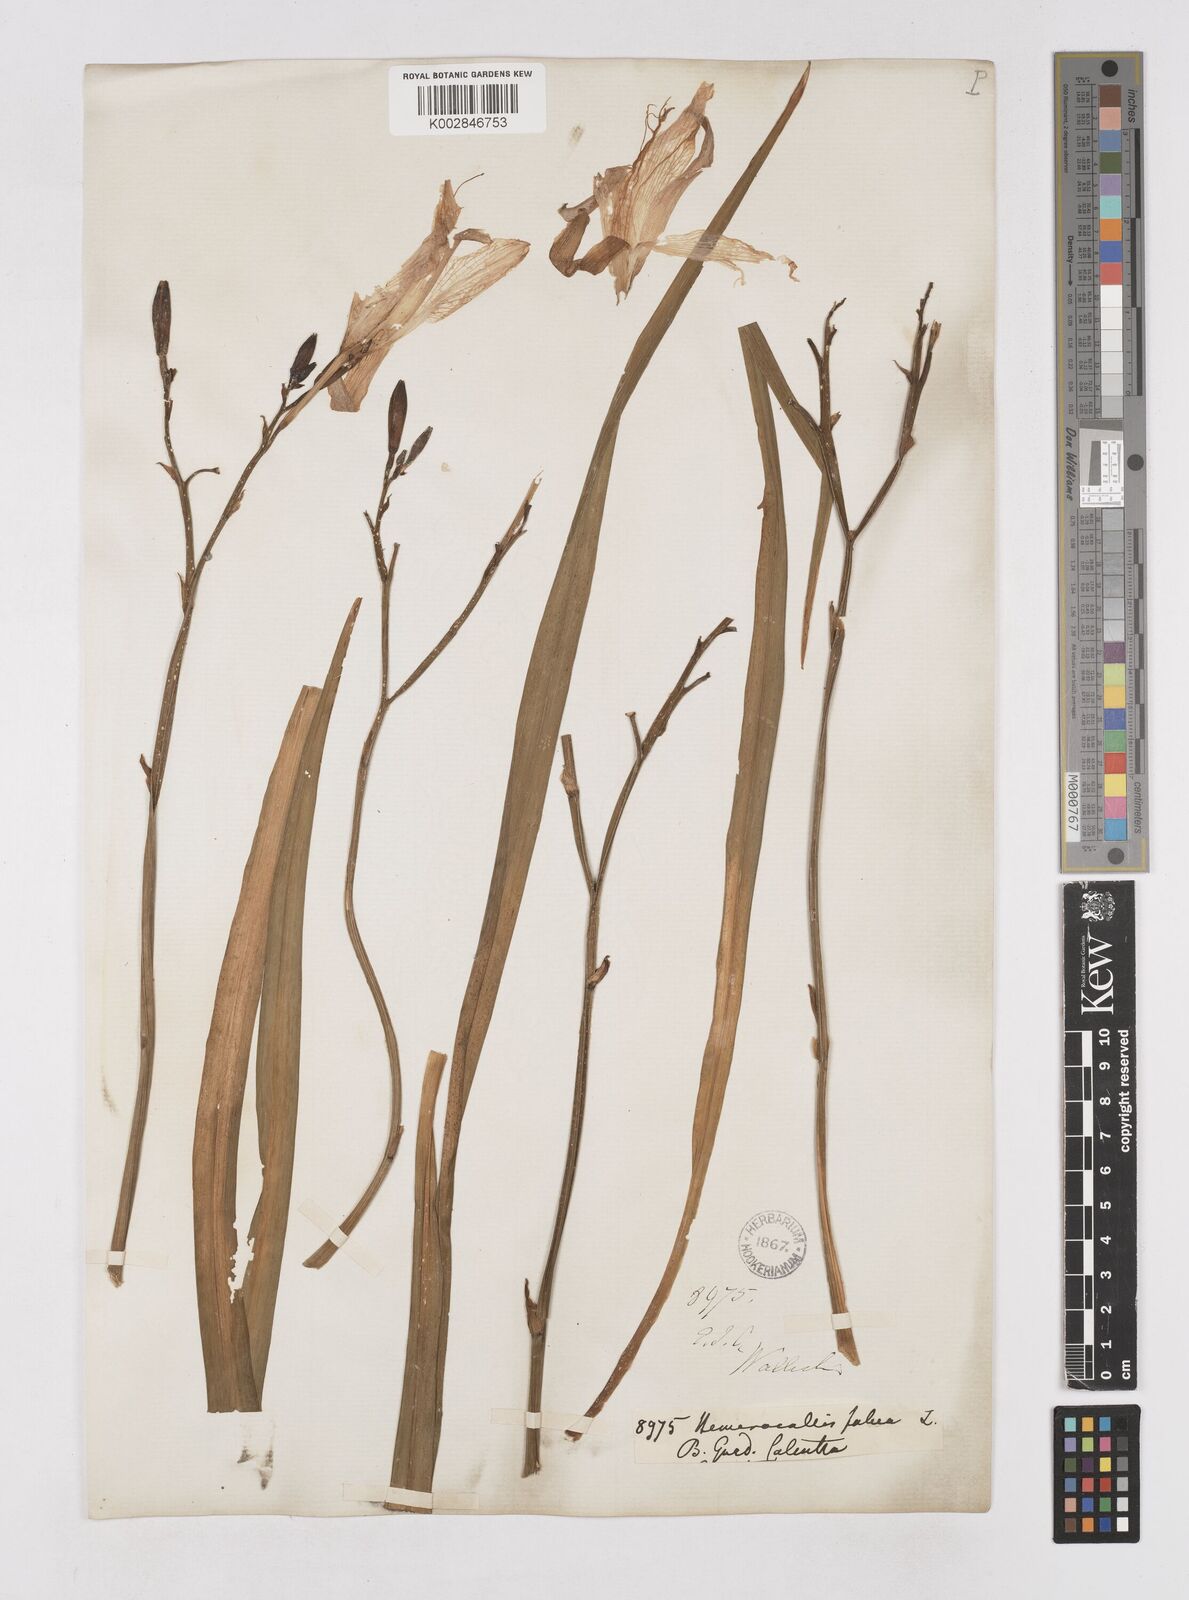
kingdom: Plantae
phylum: Tracheophyta
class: Liliopsida
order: Asparagales
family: Asphodelaceae
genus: Hemerocallis
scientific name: Hemerocallis fulva
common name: Orange day-lily
